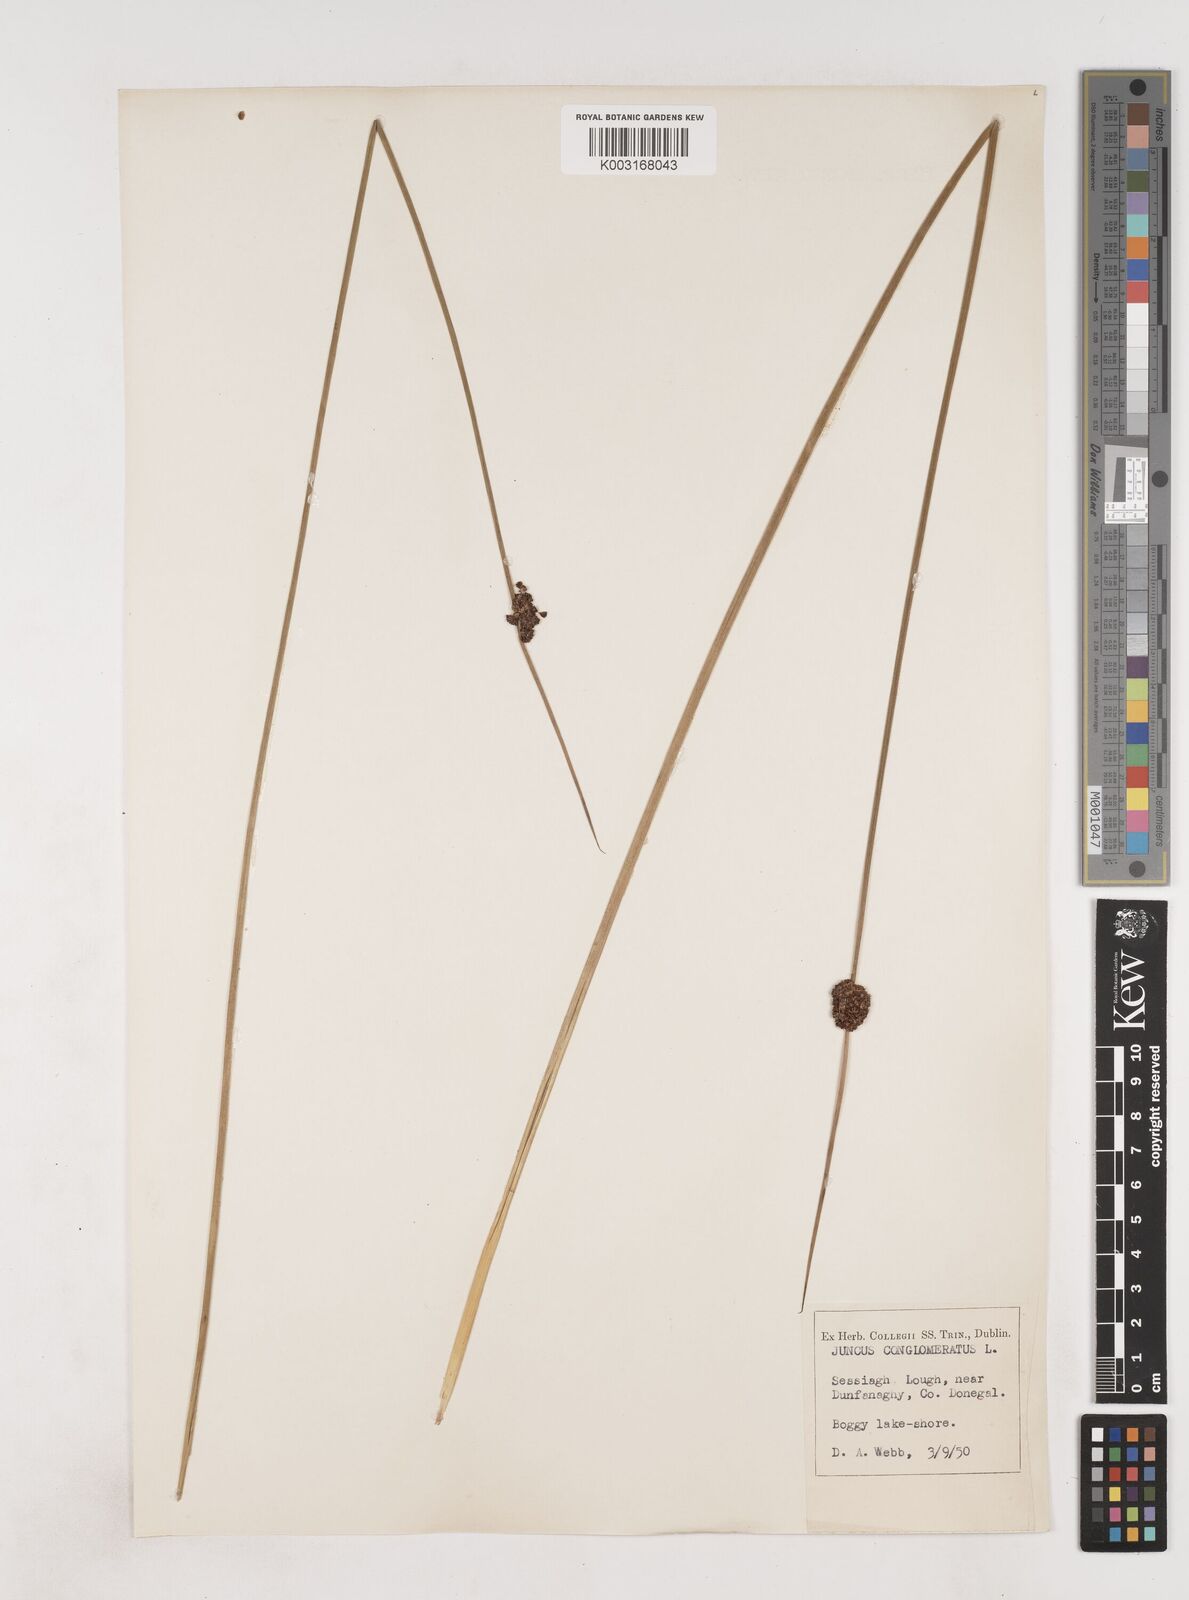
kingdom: Plantae
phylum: Tracheophyta
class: Liliopsida
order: Poales
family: Juncaceae
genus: Juncus
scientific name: Juncus conglomeratus
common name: Compact rush
